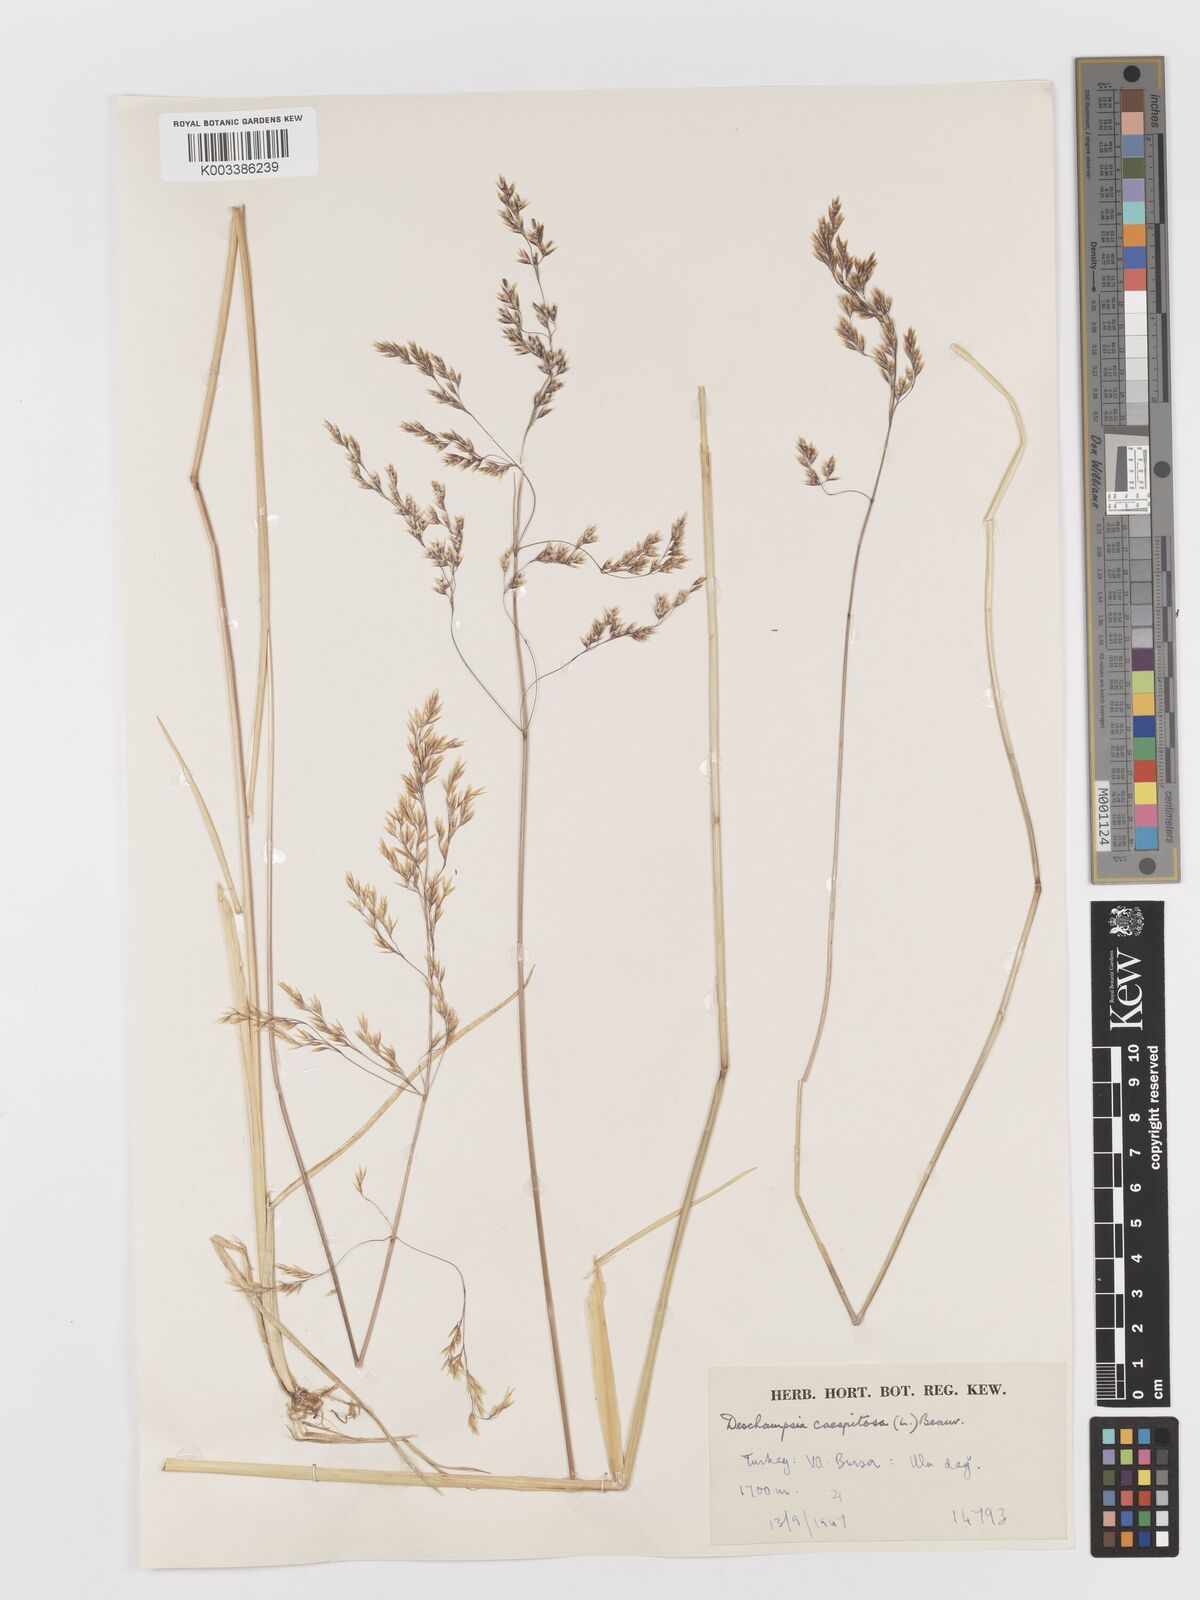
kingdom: Plantae
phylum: Tracheophyta
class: Liliopsida
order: Poales
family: Poaceae
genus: Deschampsia
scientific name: Deschampsia cespitosa
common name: Tufted hair-grass
